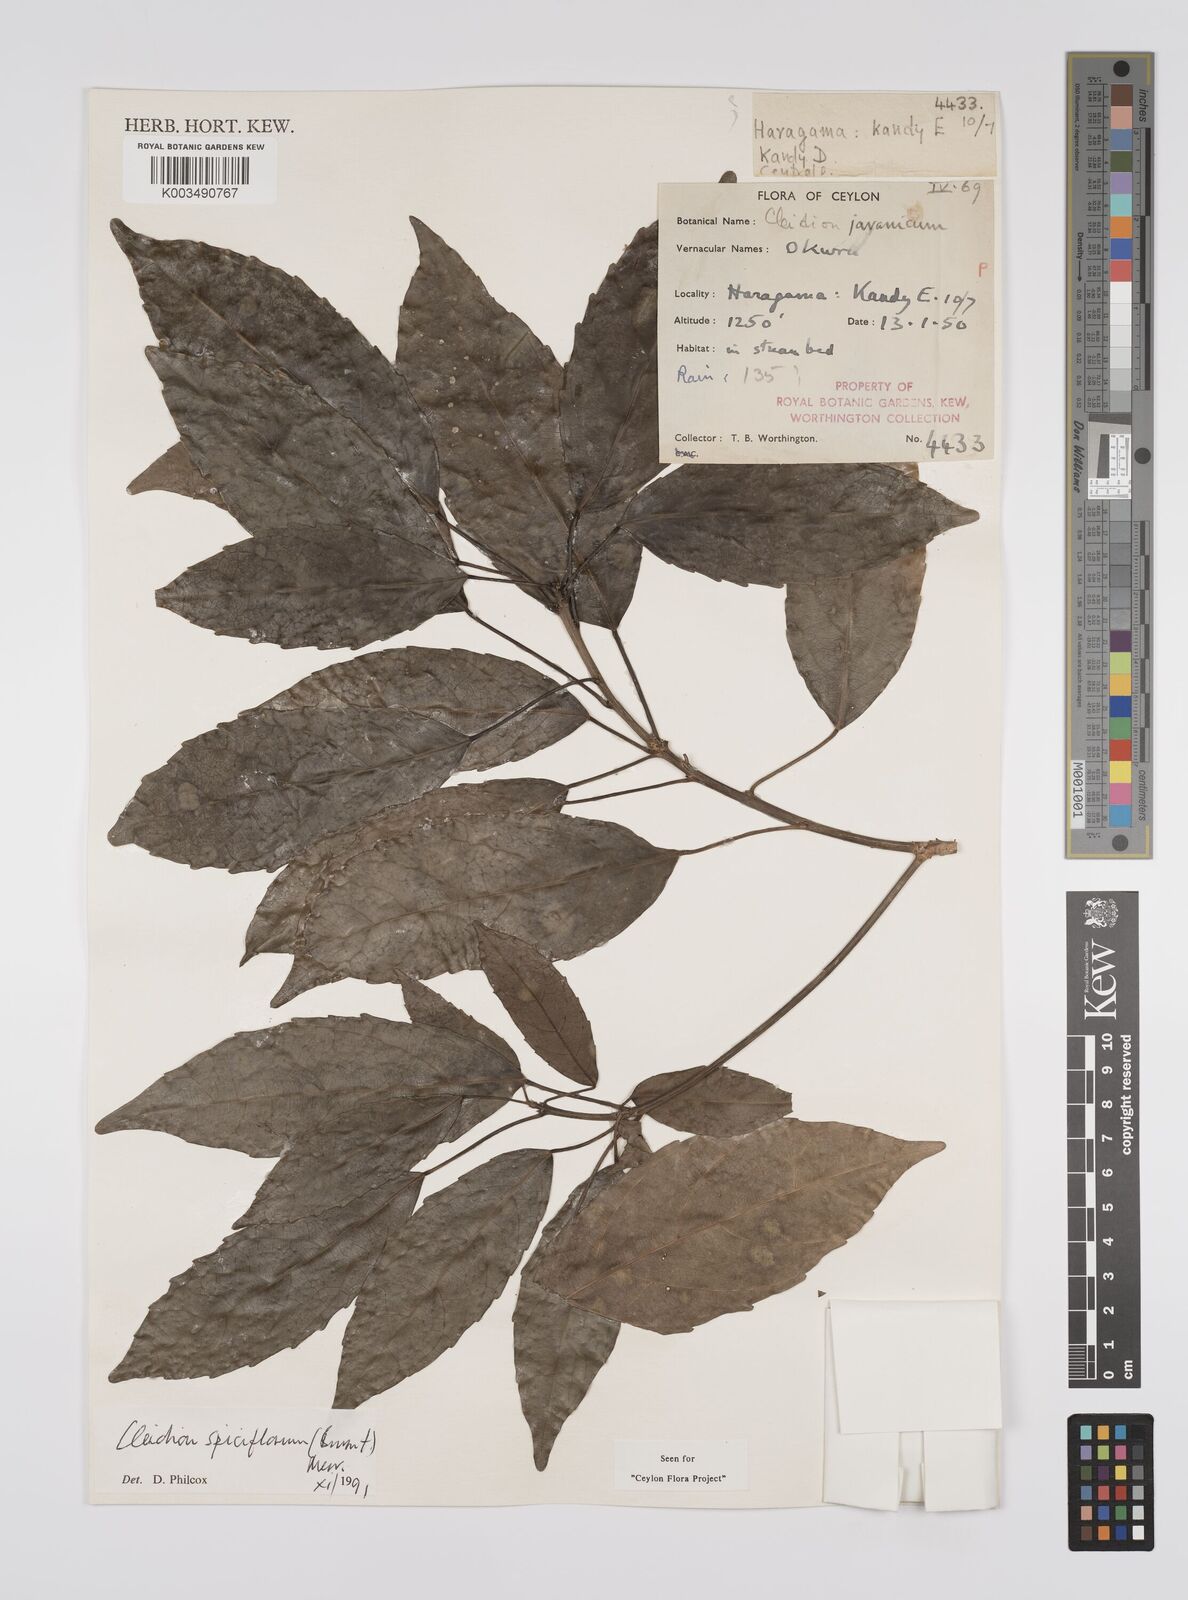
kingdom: Plantae
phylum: Tracheophyta
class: Magnoliopsida
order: Malpighiales
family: Euphorbiaceae
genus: Acalypha
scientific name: Acalypha spiciflora
